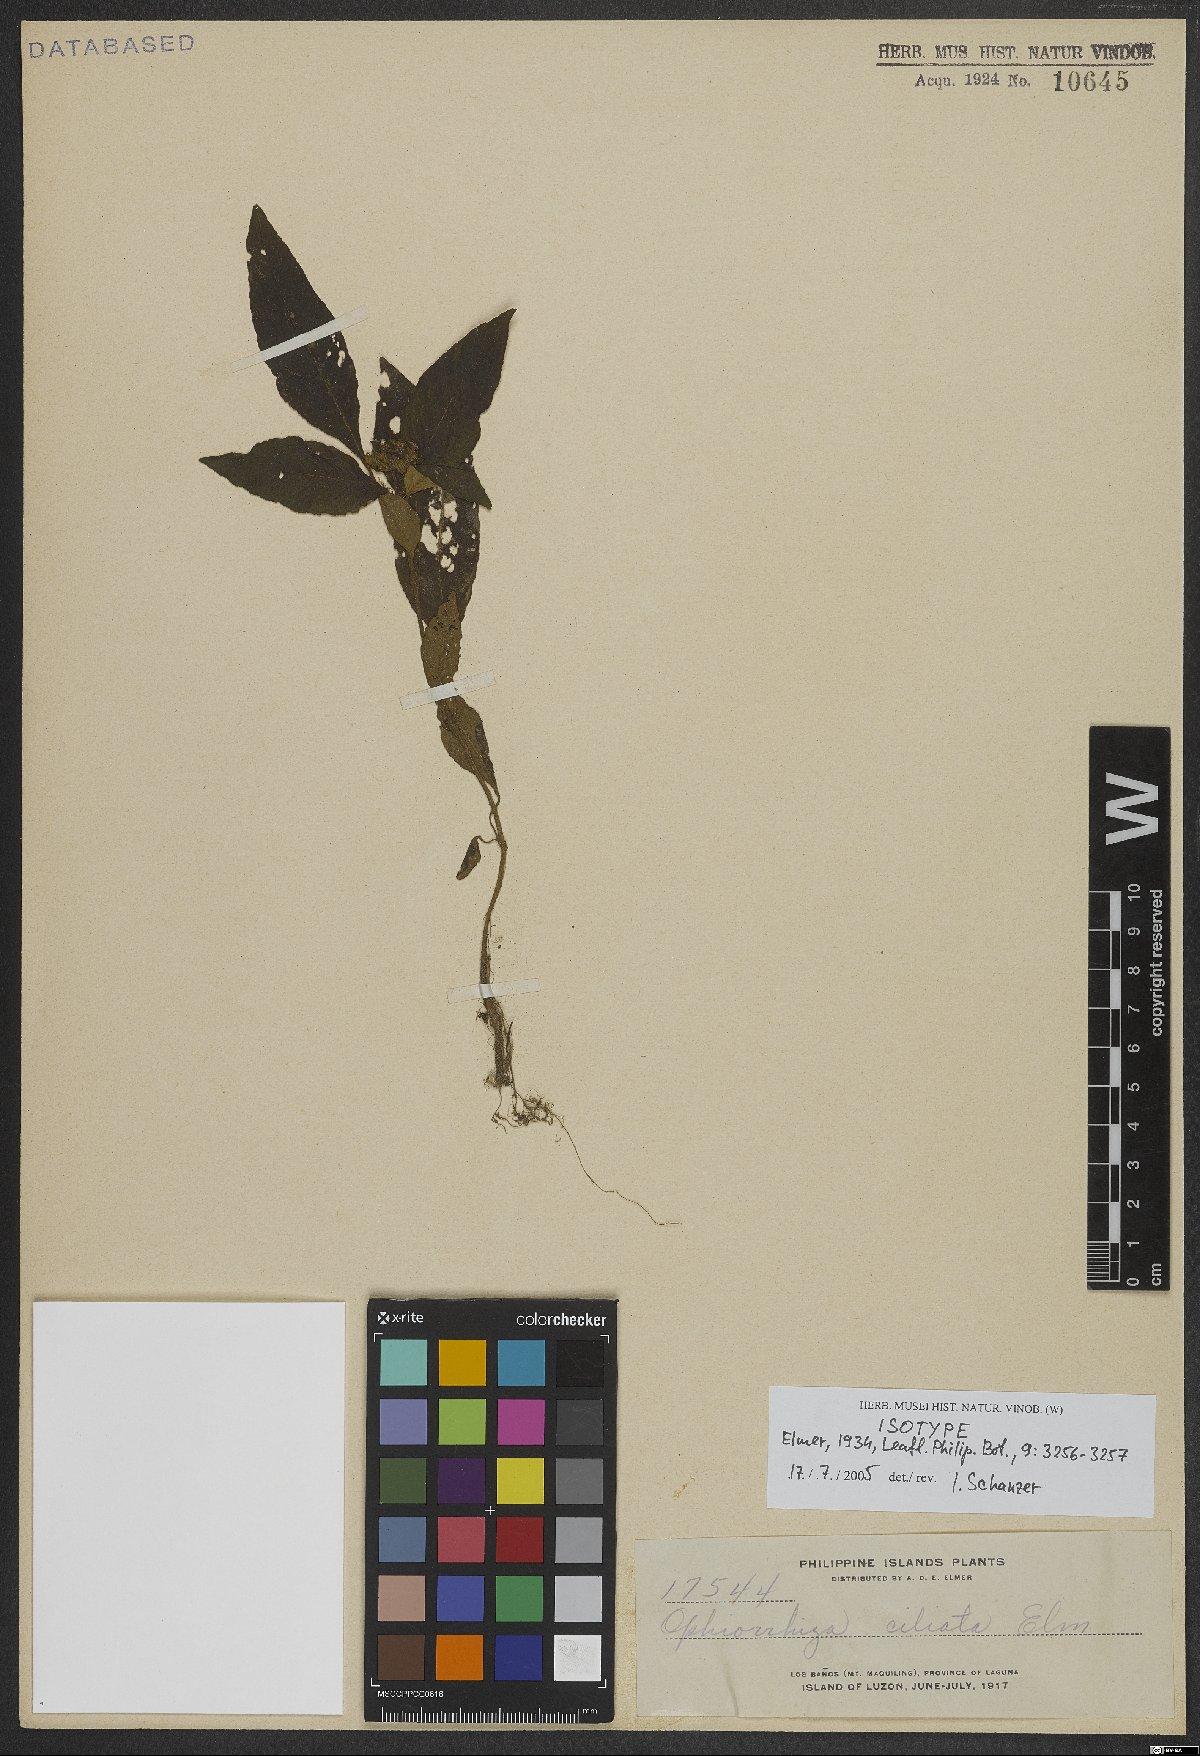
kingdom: Plantae
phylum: Tracheophyta
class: Magnoliopsida
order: Gentianales
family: Rubiaceae
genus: Ophiorrhiza
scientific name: Ophiorrhiza ciliata
